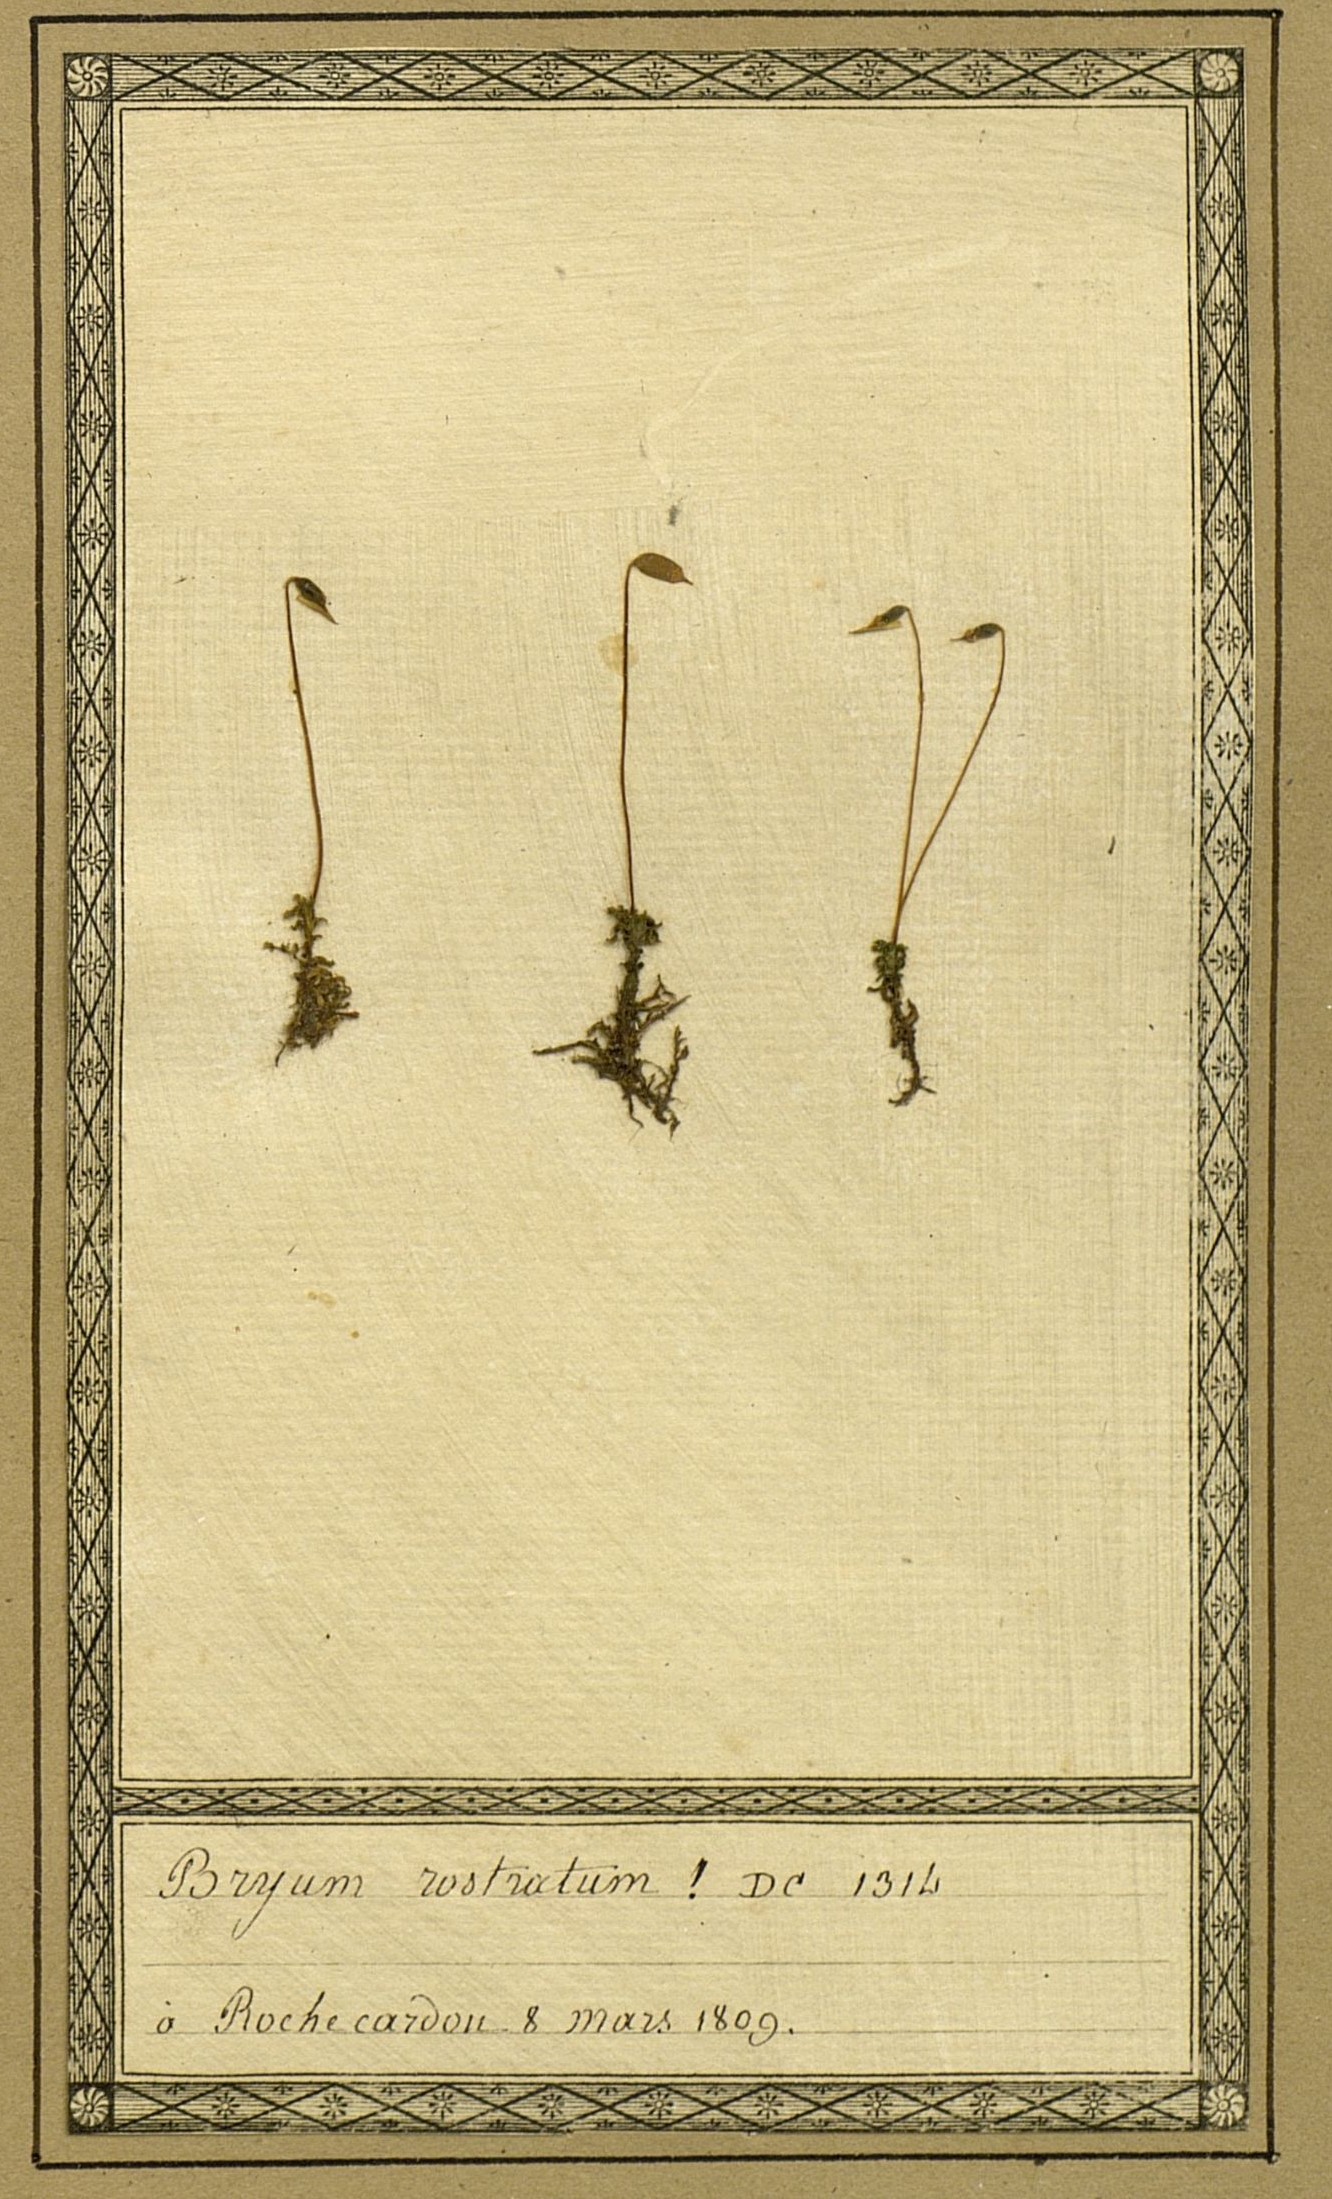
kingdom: Plantae
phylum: Bryophyta
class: Bryopsida
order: Bryales
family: Bryaceae
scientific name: Bryaceae
